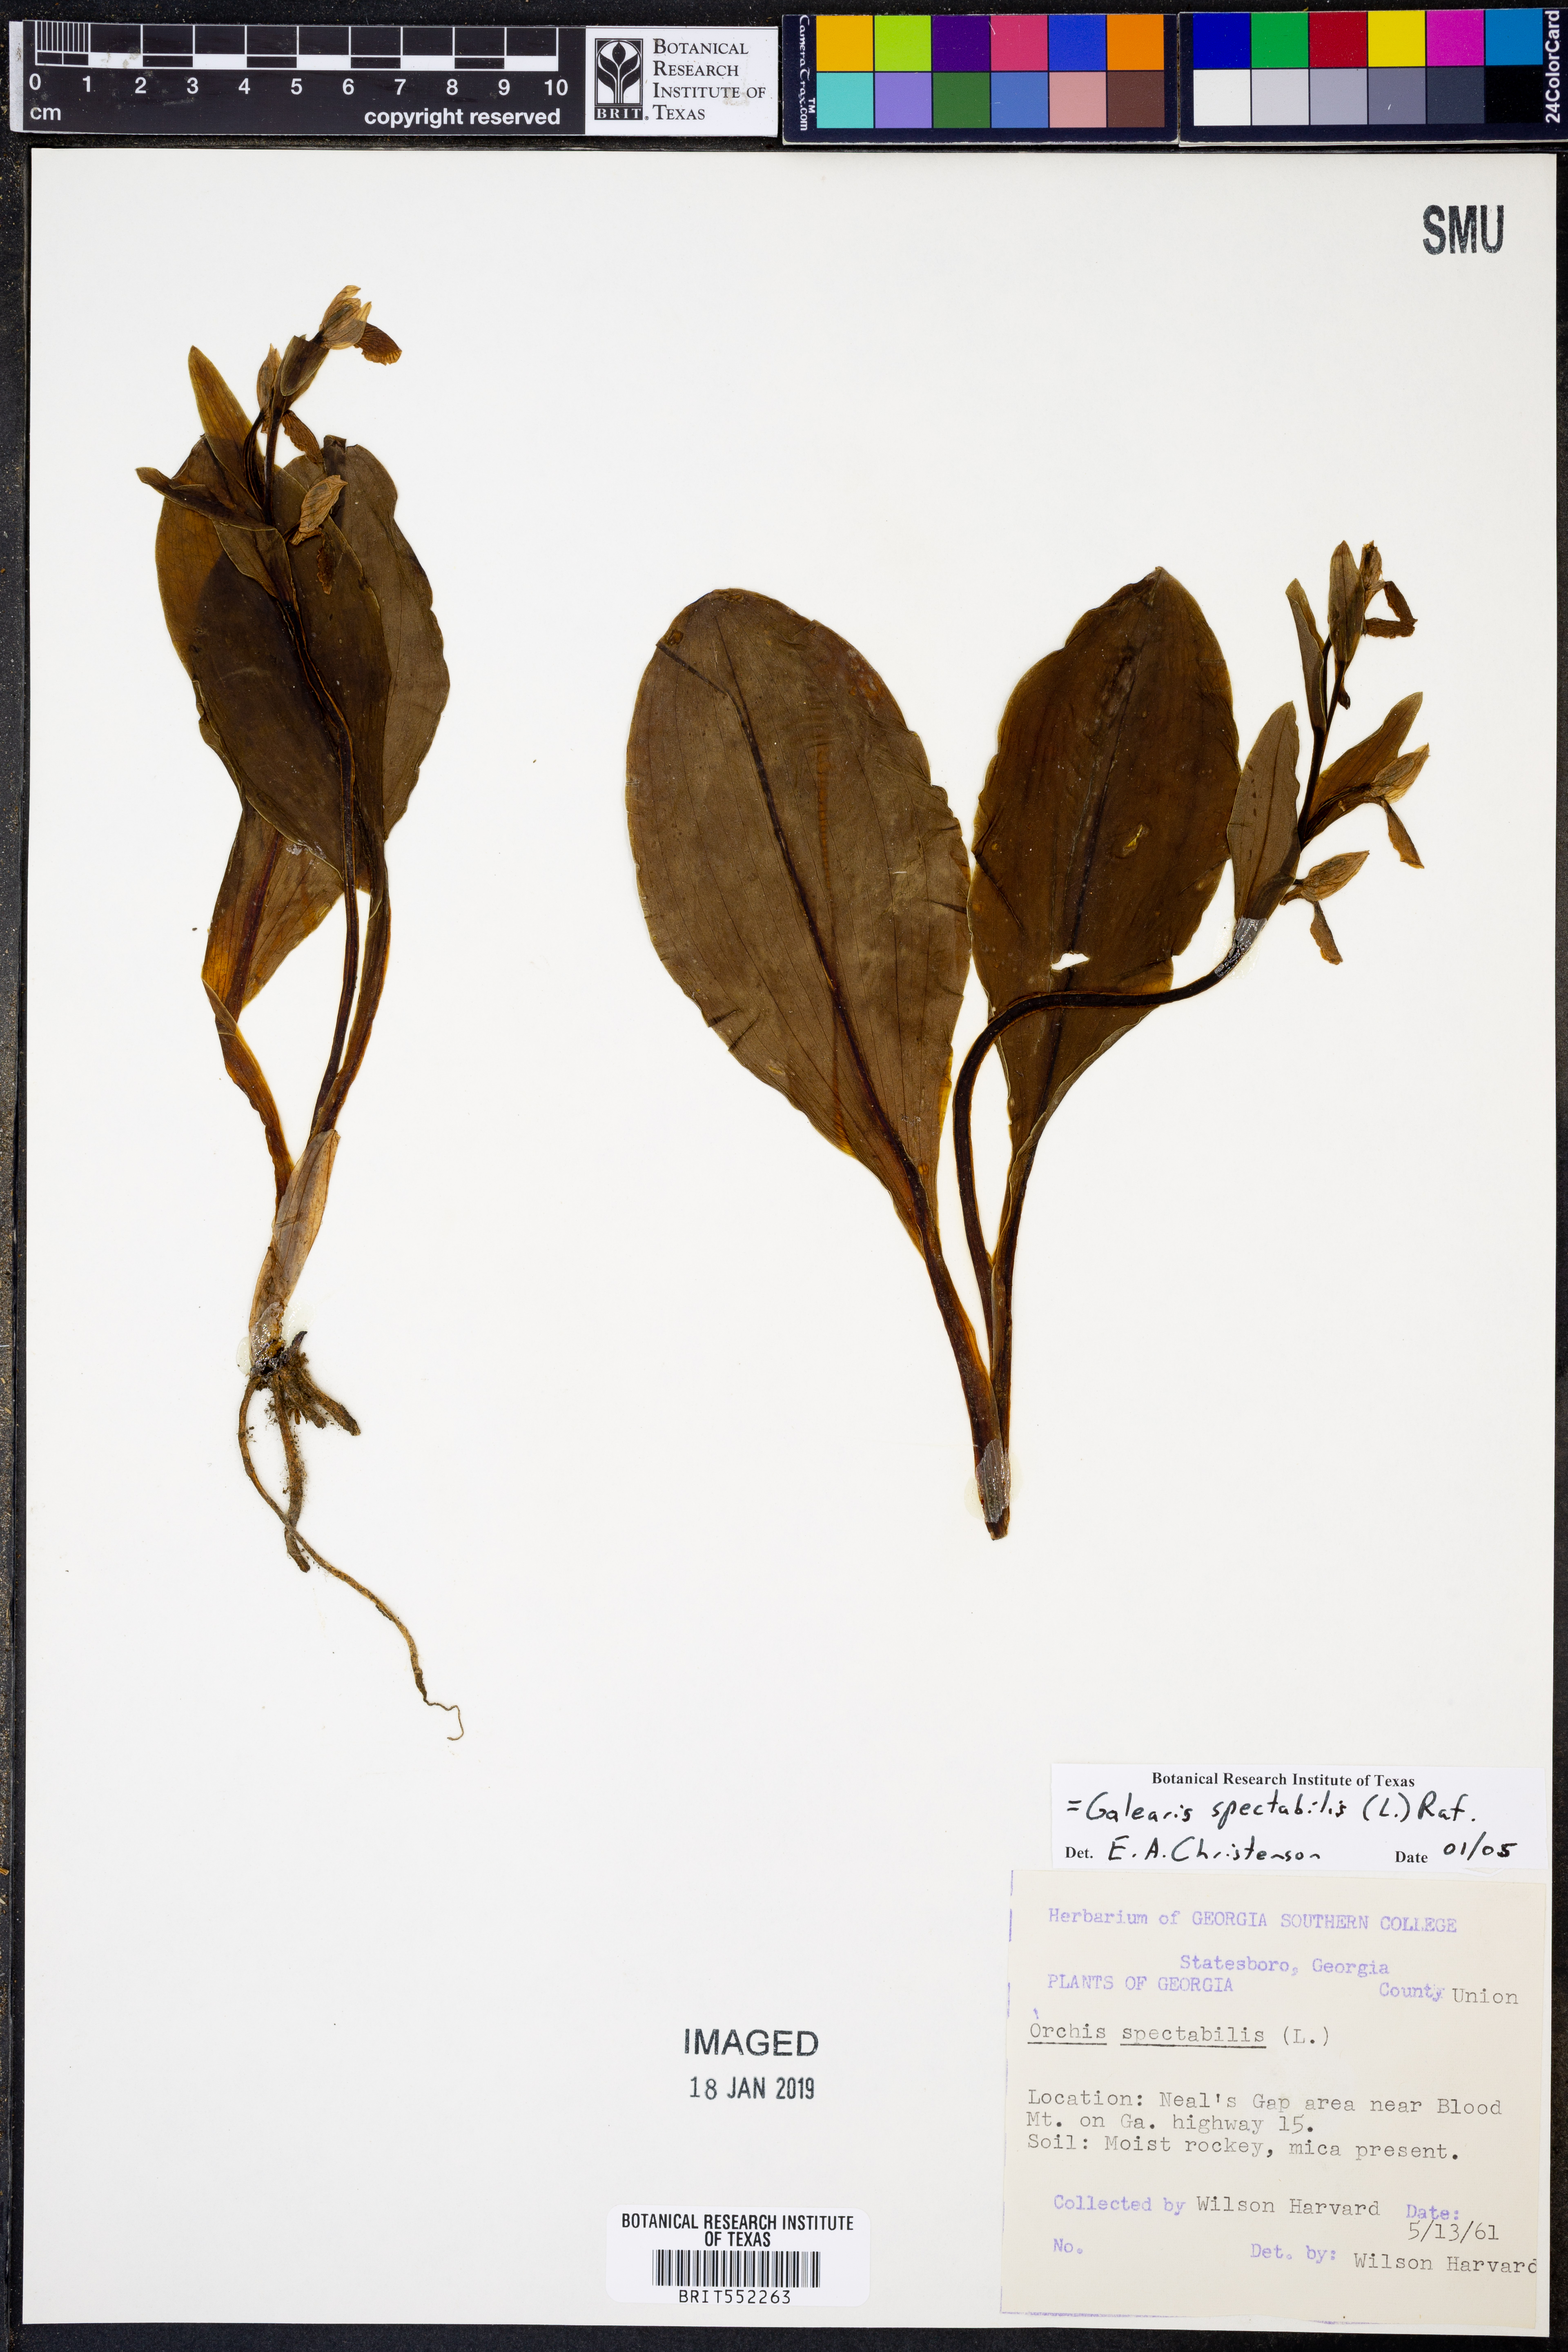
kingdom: Plantae
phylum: Tracheophyta
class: Liliopsida
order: Asparagales
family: Orchidaceae
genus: Galearis
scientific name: Galearis spectabilis
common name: Purple-hooded orchis
